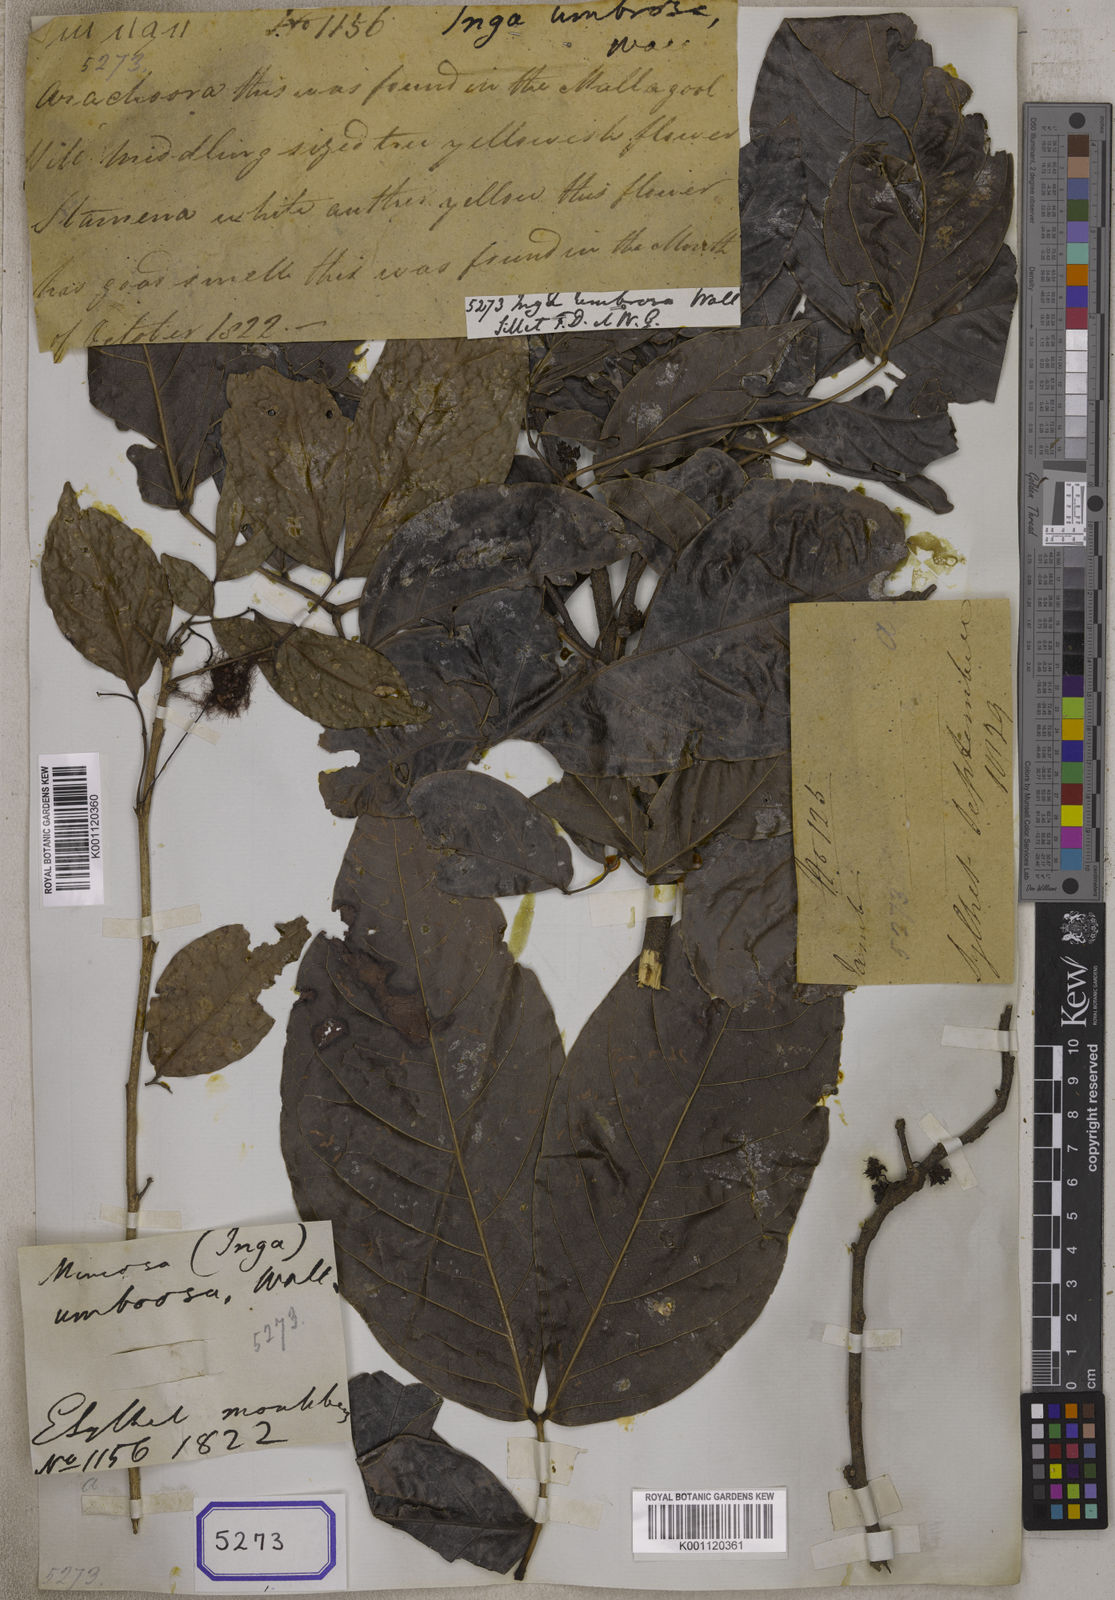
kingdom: Plantae
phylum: Tracheophyta
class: Magnoliopsida
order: Fabales
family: Fabaceae
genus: Albizia
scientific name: Albizia umbrosa
